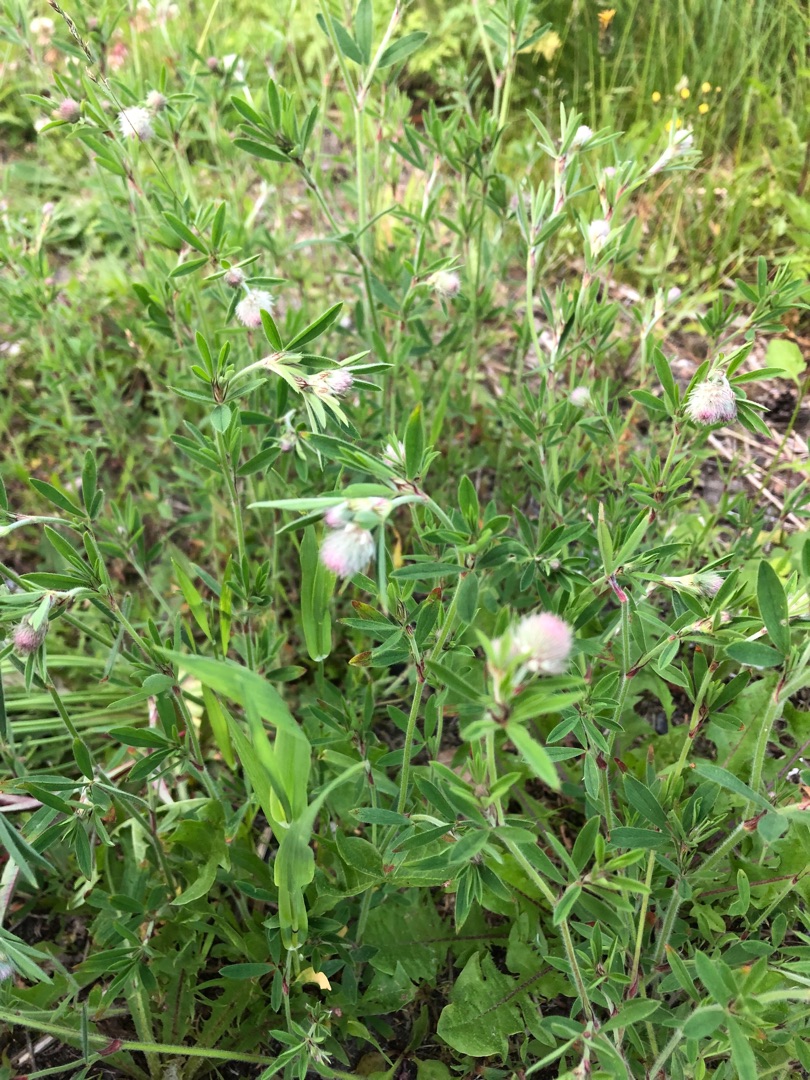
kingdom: Plantae
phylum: Tracheophyta
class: Magnoliopsida
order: Fabales
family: Fabaceae
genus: Trifolium
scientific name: Trifolium arvense
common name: Hare-kløver
